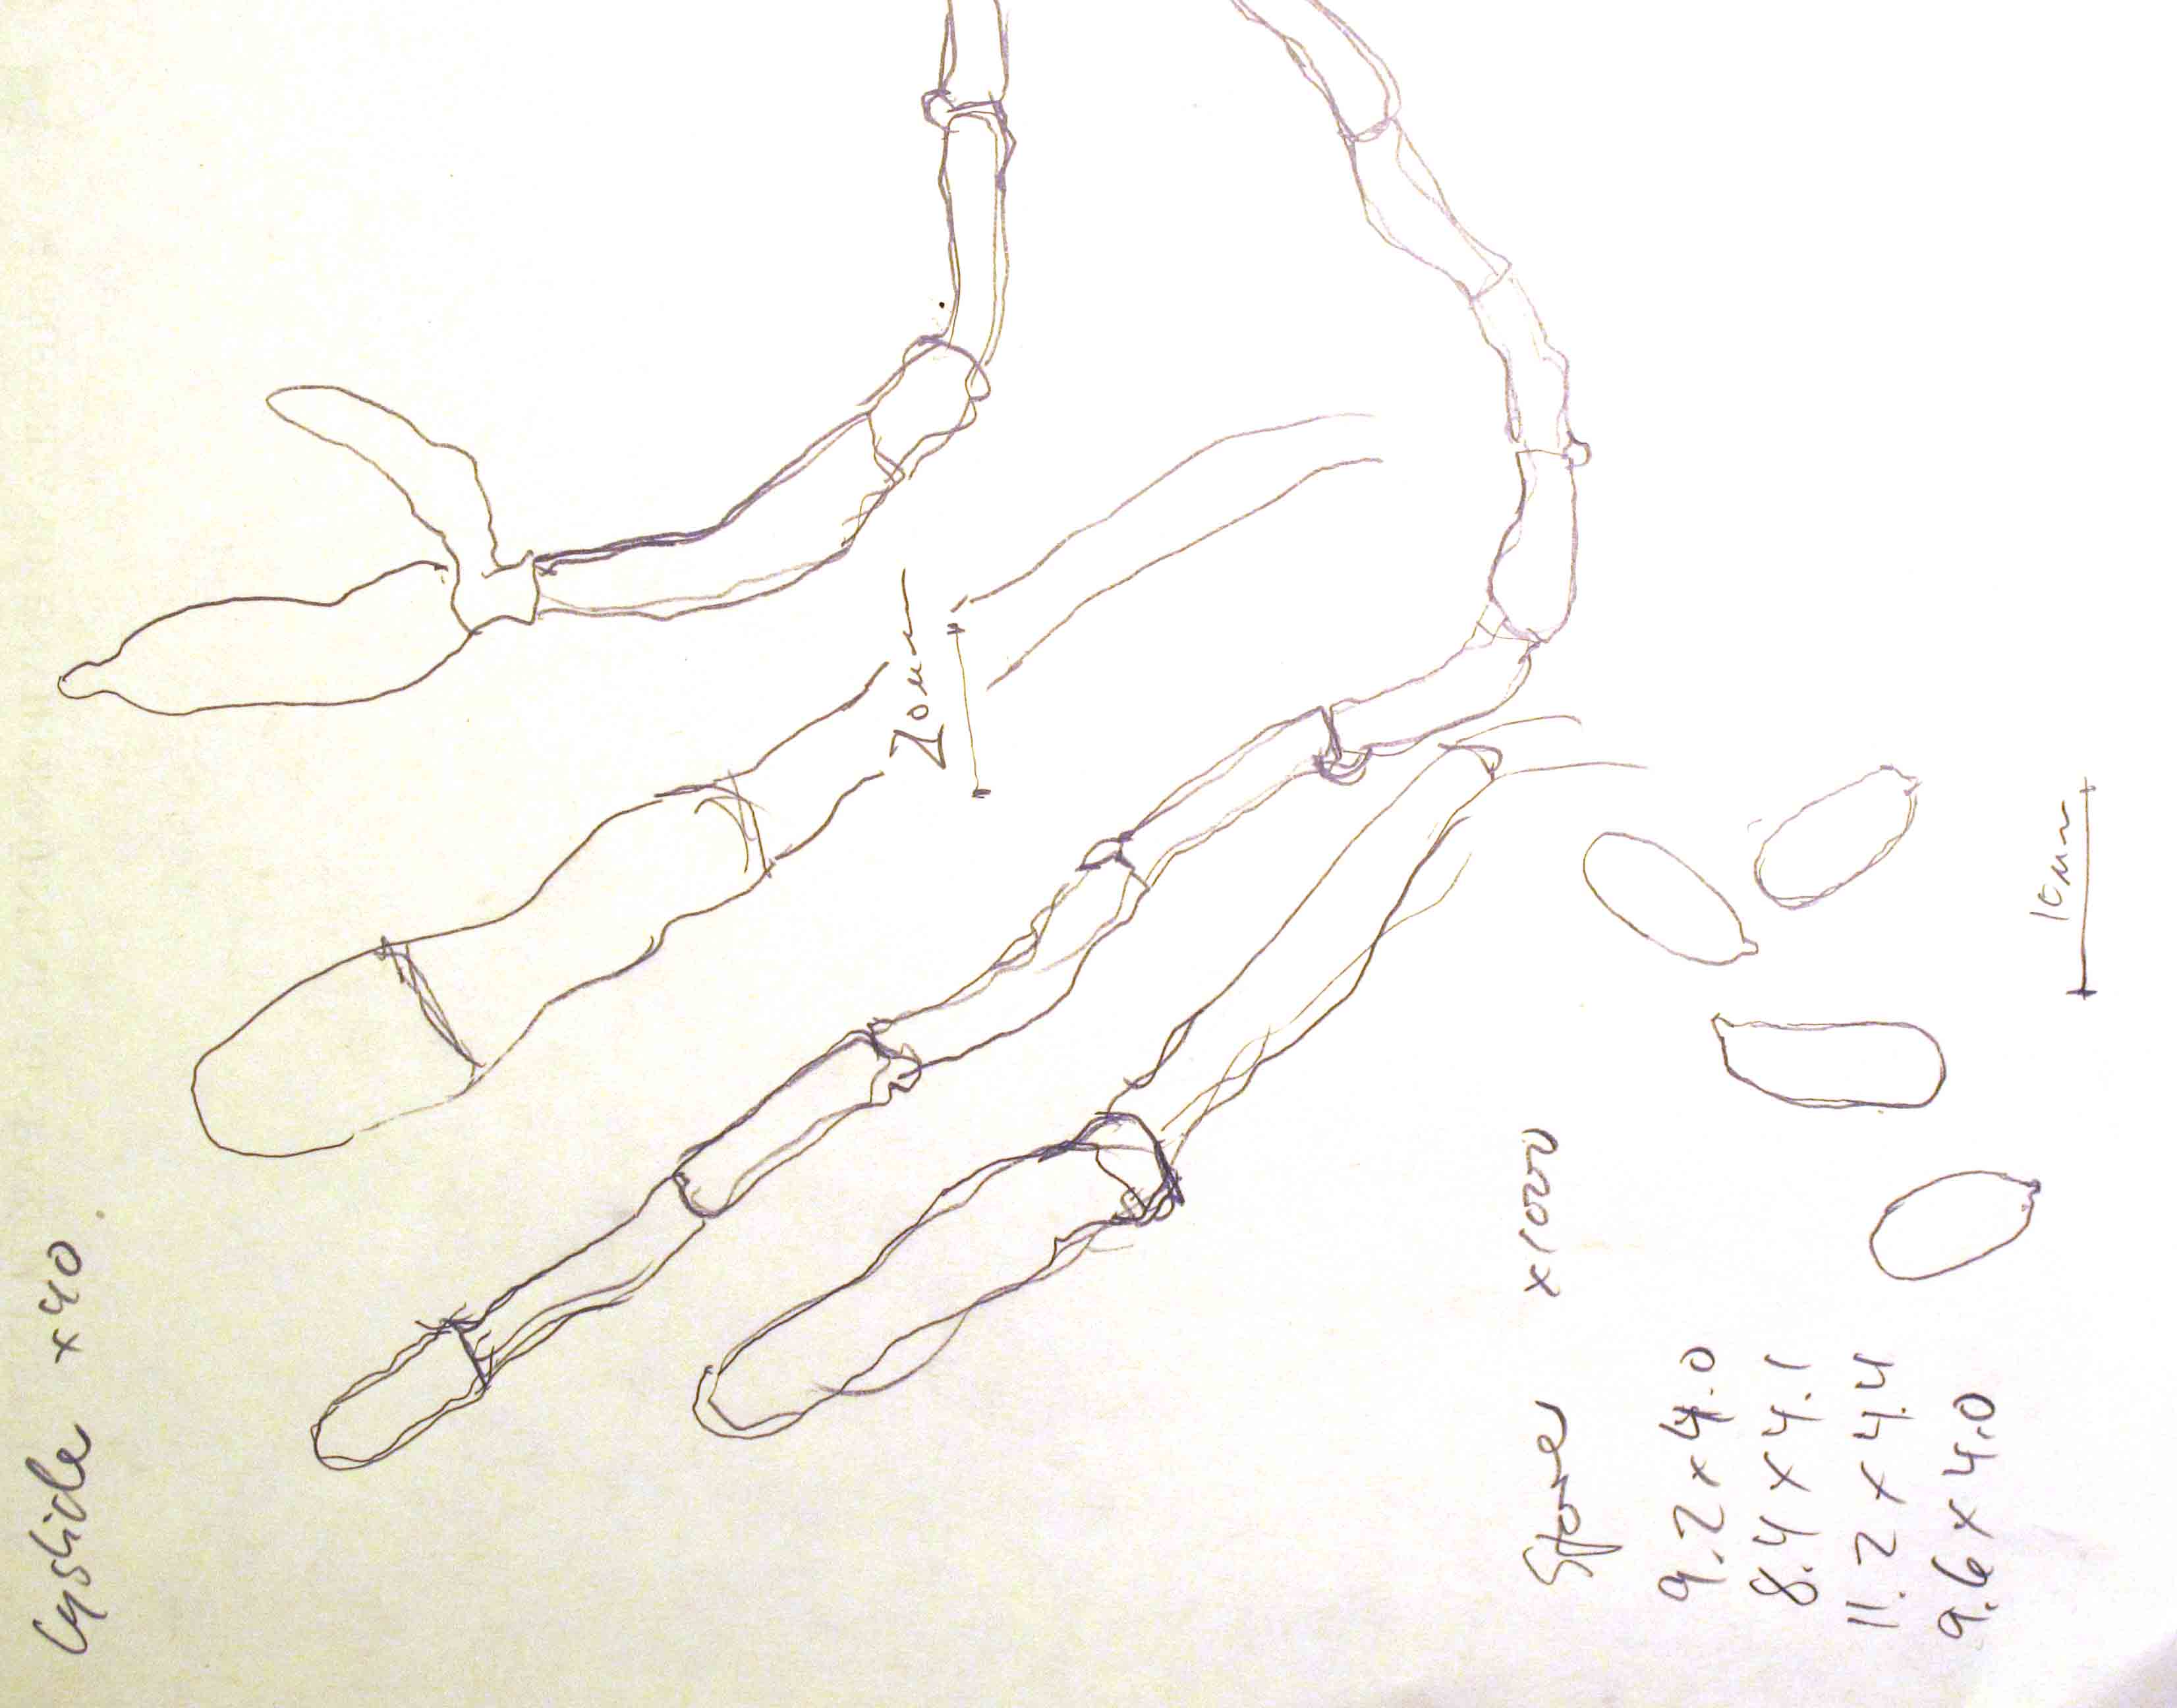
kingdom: Fungi
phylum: Basidiomycota
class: Agaricomycetes
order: Polyporales
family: Hyphodermataceae
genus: Hyphoderma
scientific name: Hyphoderma nudicephalum
